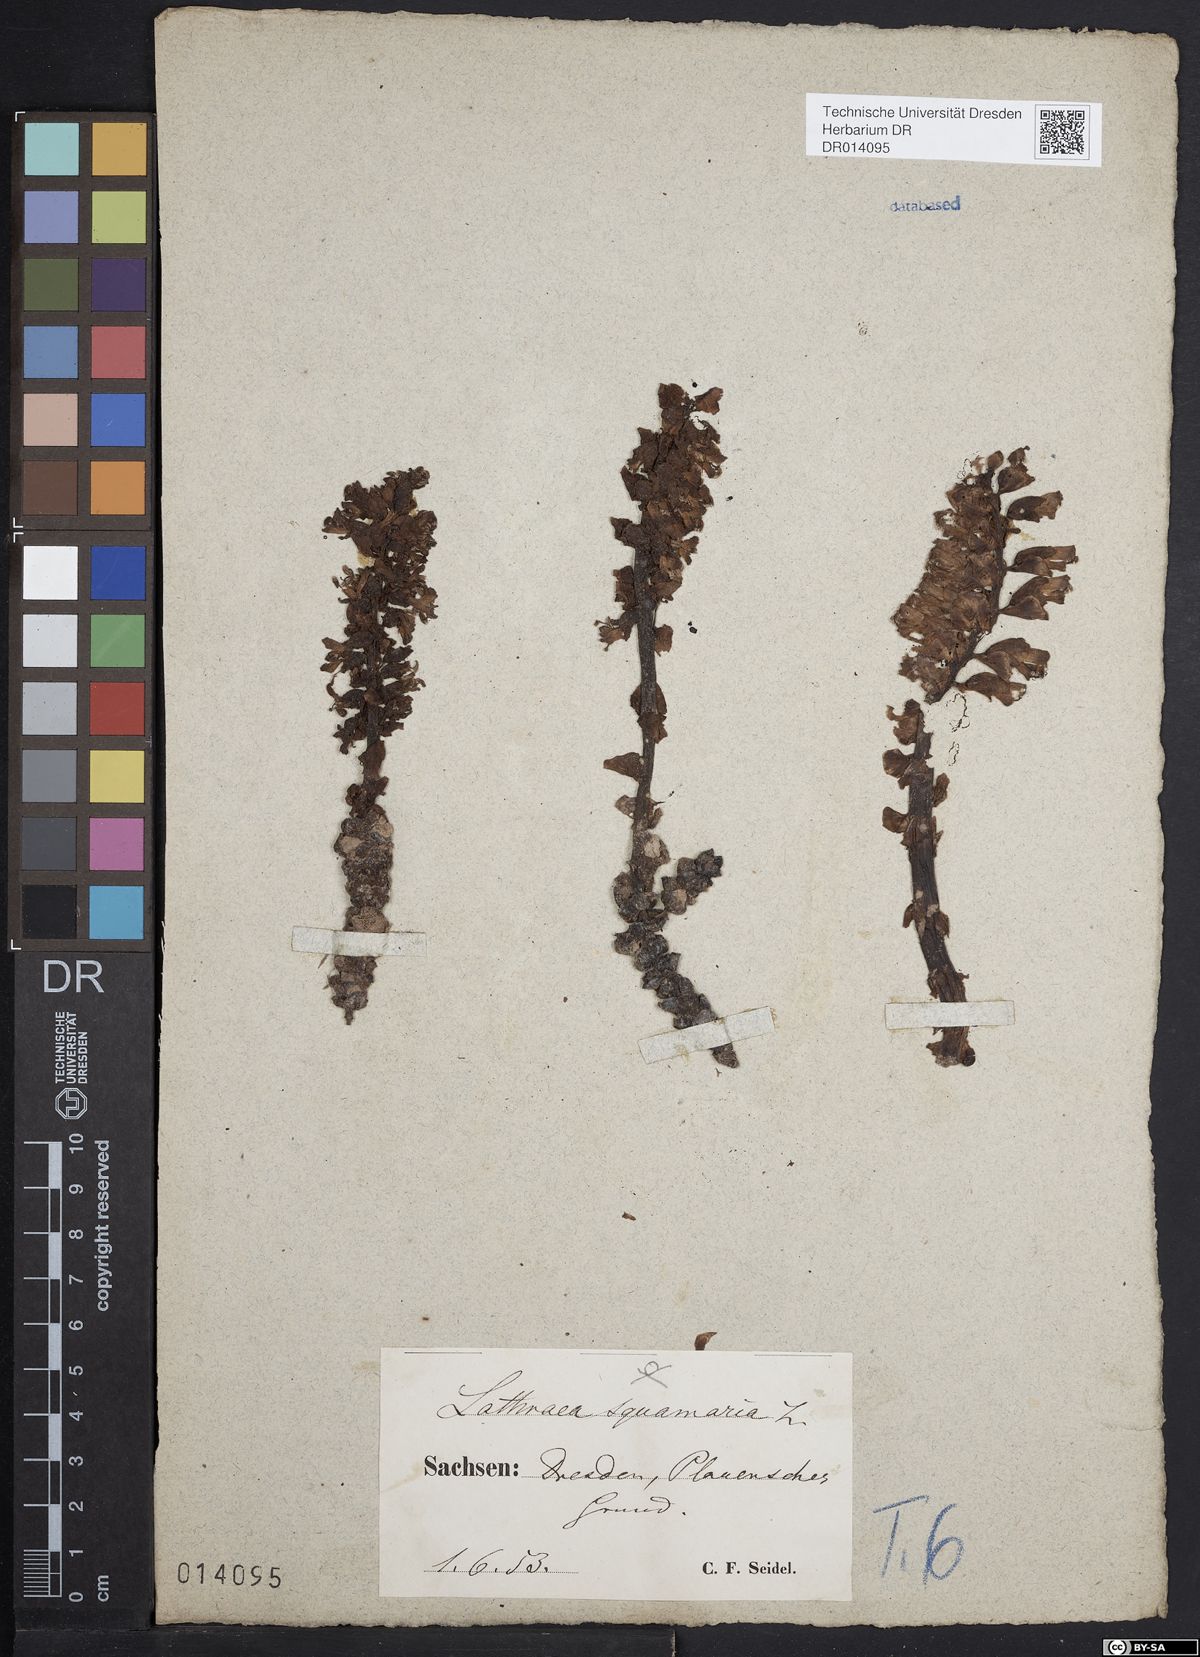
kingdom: Plantae
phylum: Tracheophyta
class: Magnoliopsida
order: Lamiales
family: Orobanchaceae
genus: Lathraea
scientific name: Lathraea squamaria
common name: Toothwort
